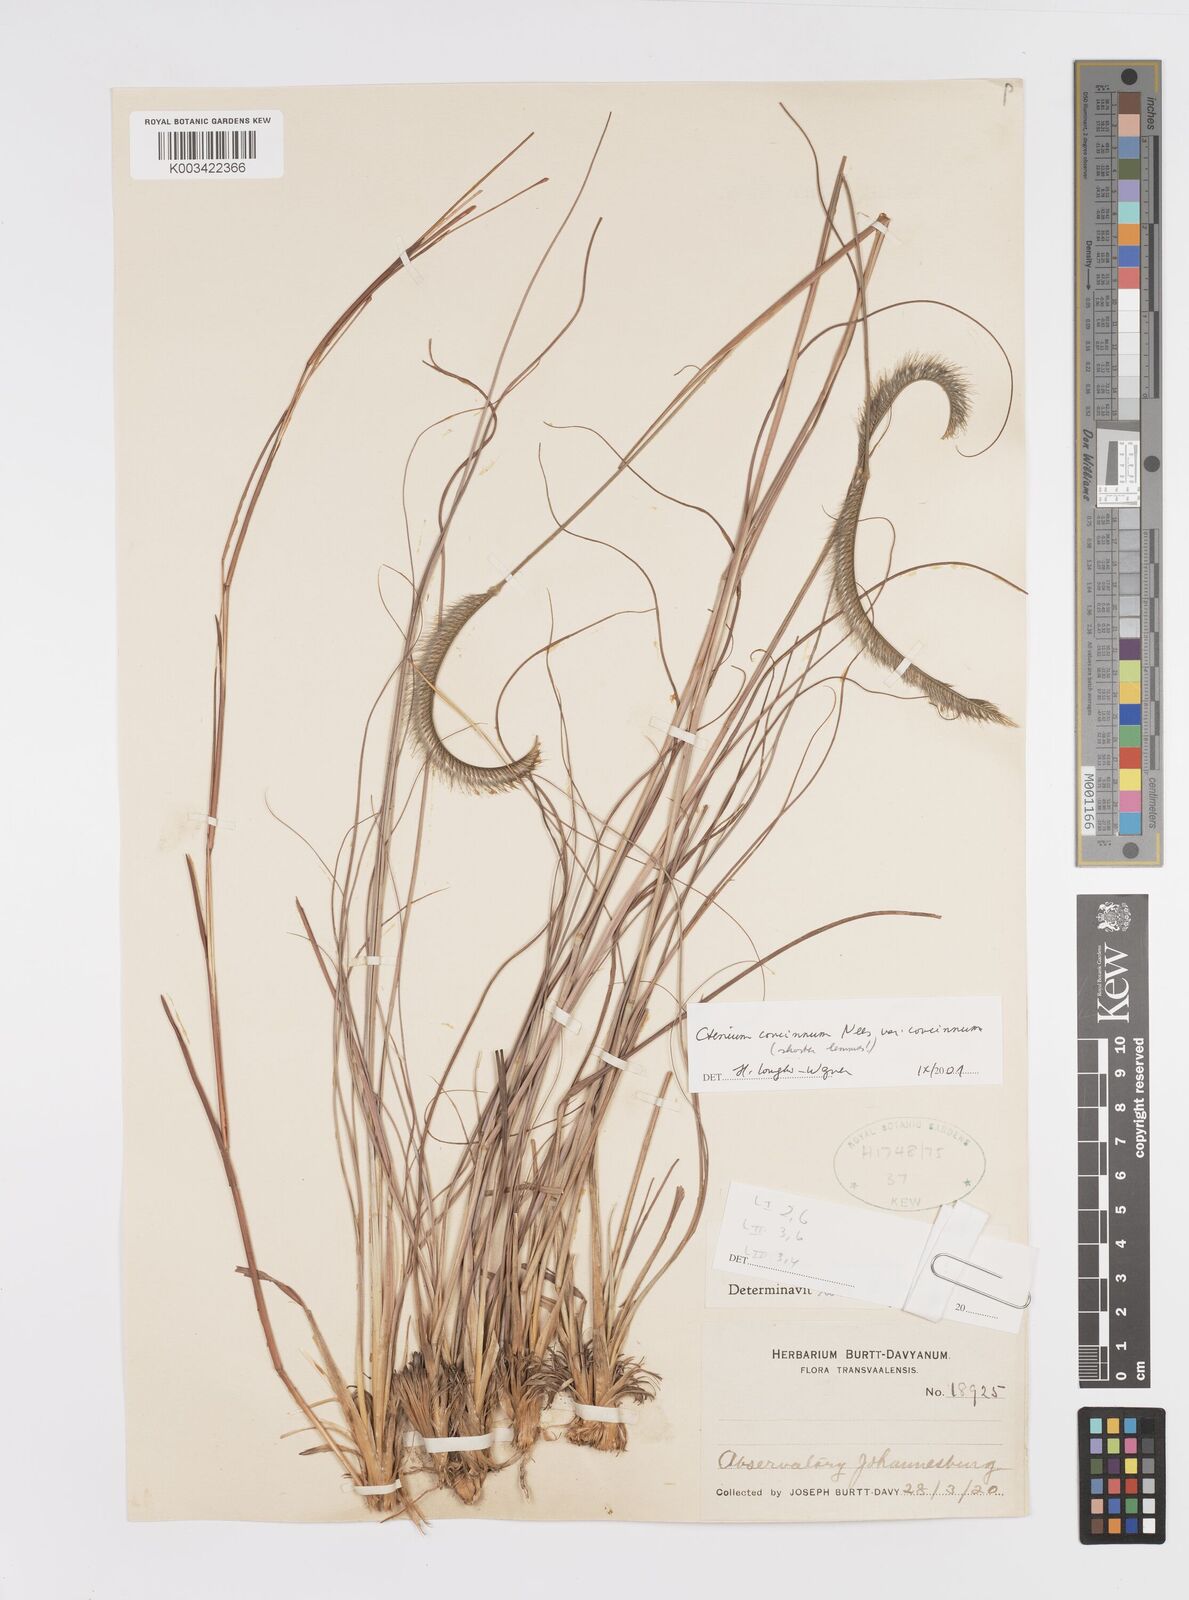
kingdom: Plantae
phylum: Tracheophyta
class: Liliopsida
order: Poales
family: Poaceae
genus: Ctenium
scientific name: Ctenium concinnum
